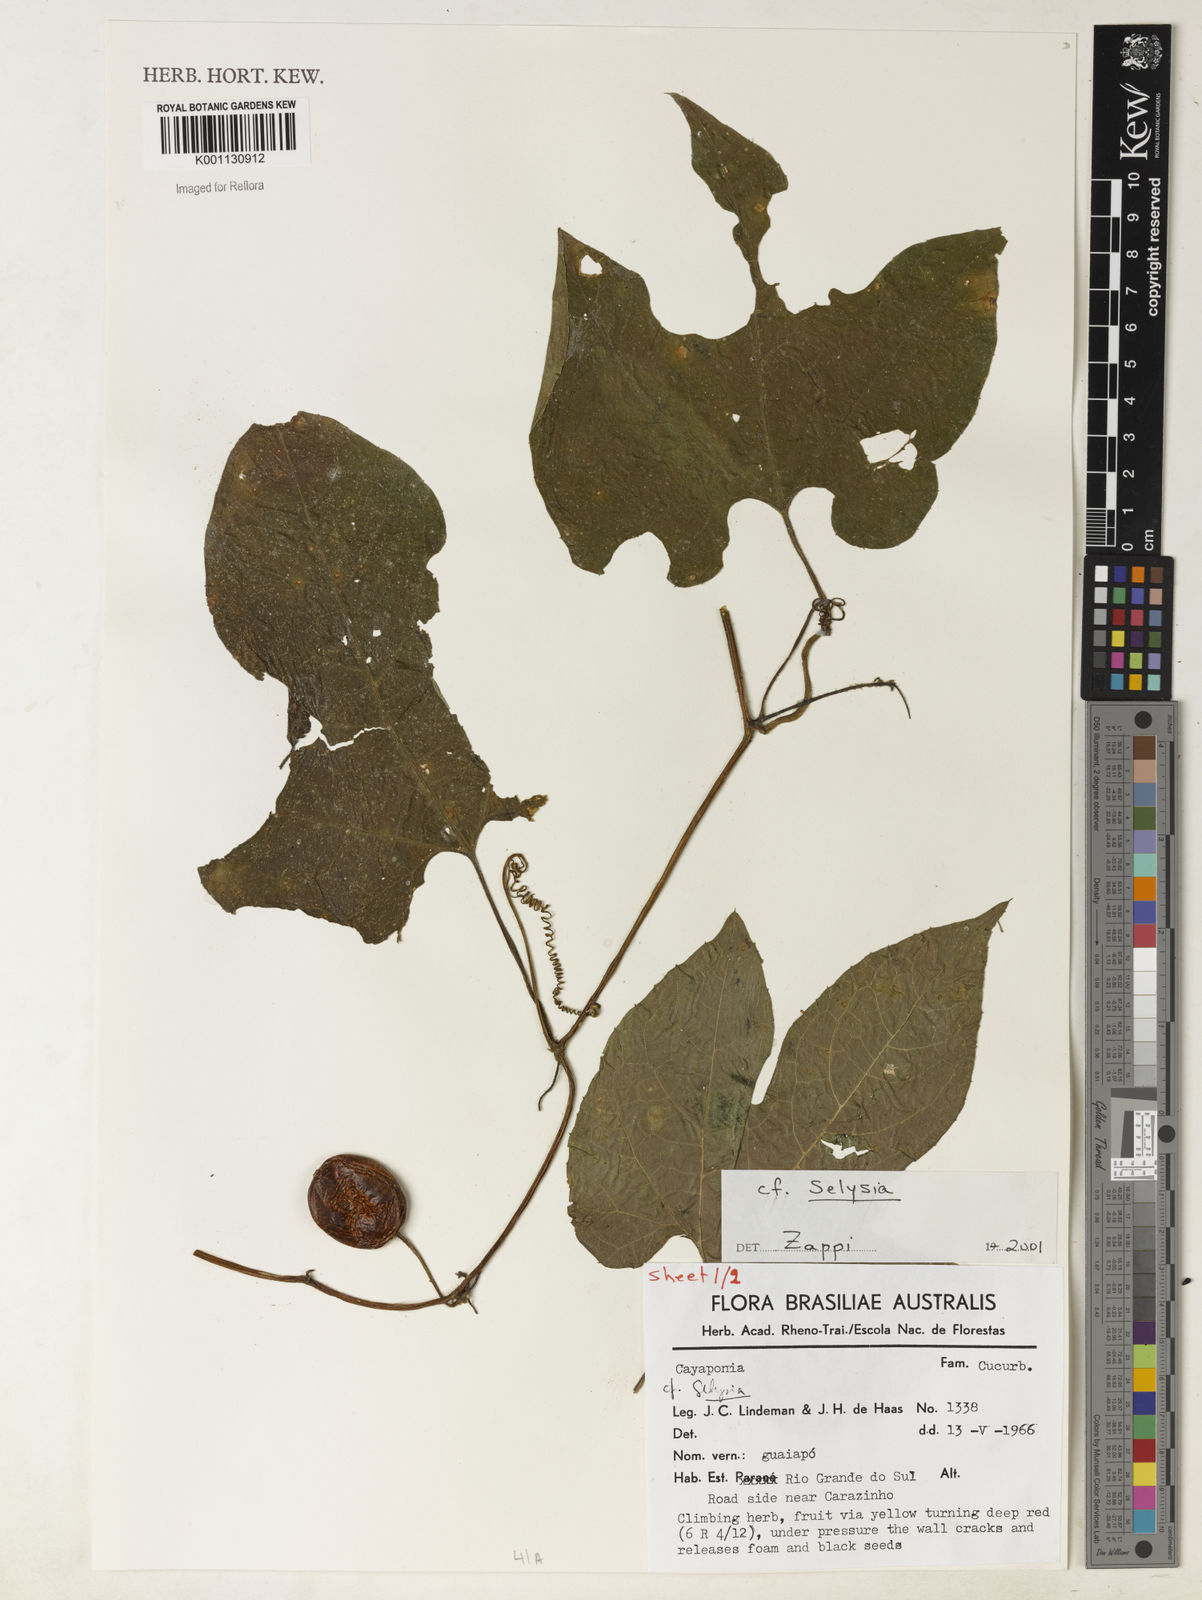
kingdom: Plantae
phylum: Tracheophyta
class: Magnoliopsida
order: Cucurbitales
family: Cucurbitaceae
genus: Selysia
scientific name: Selysia
